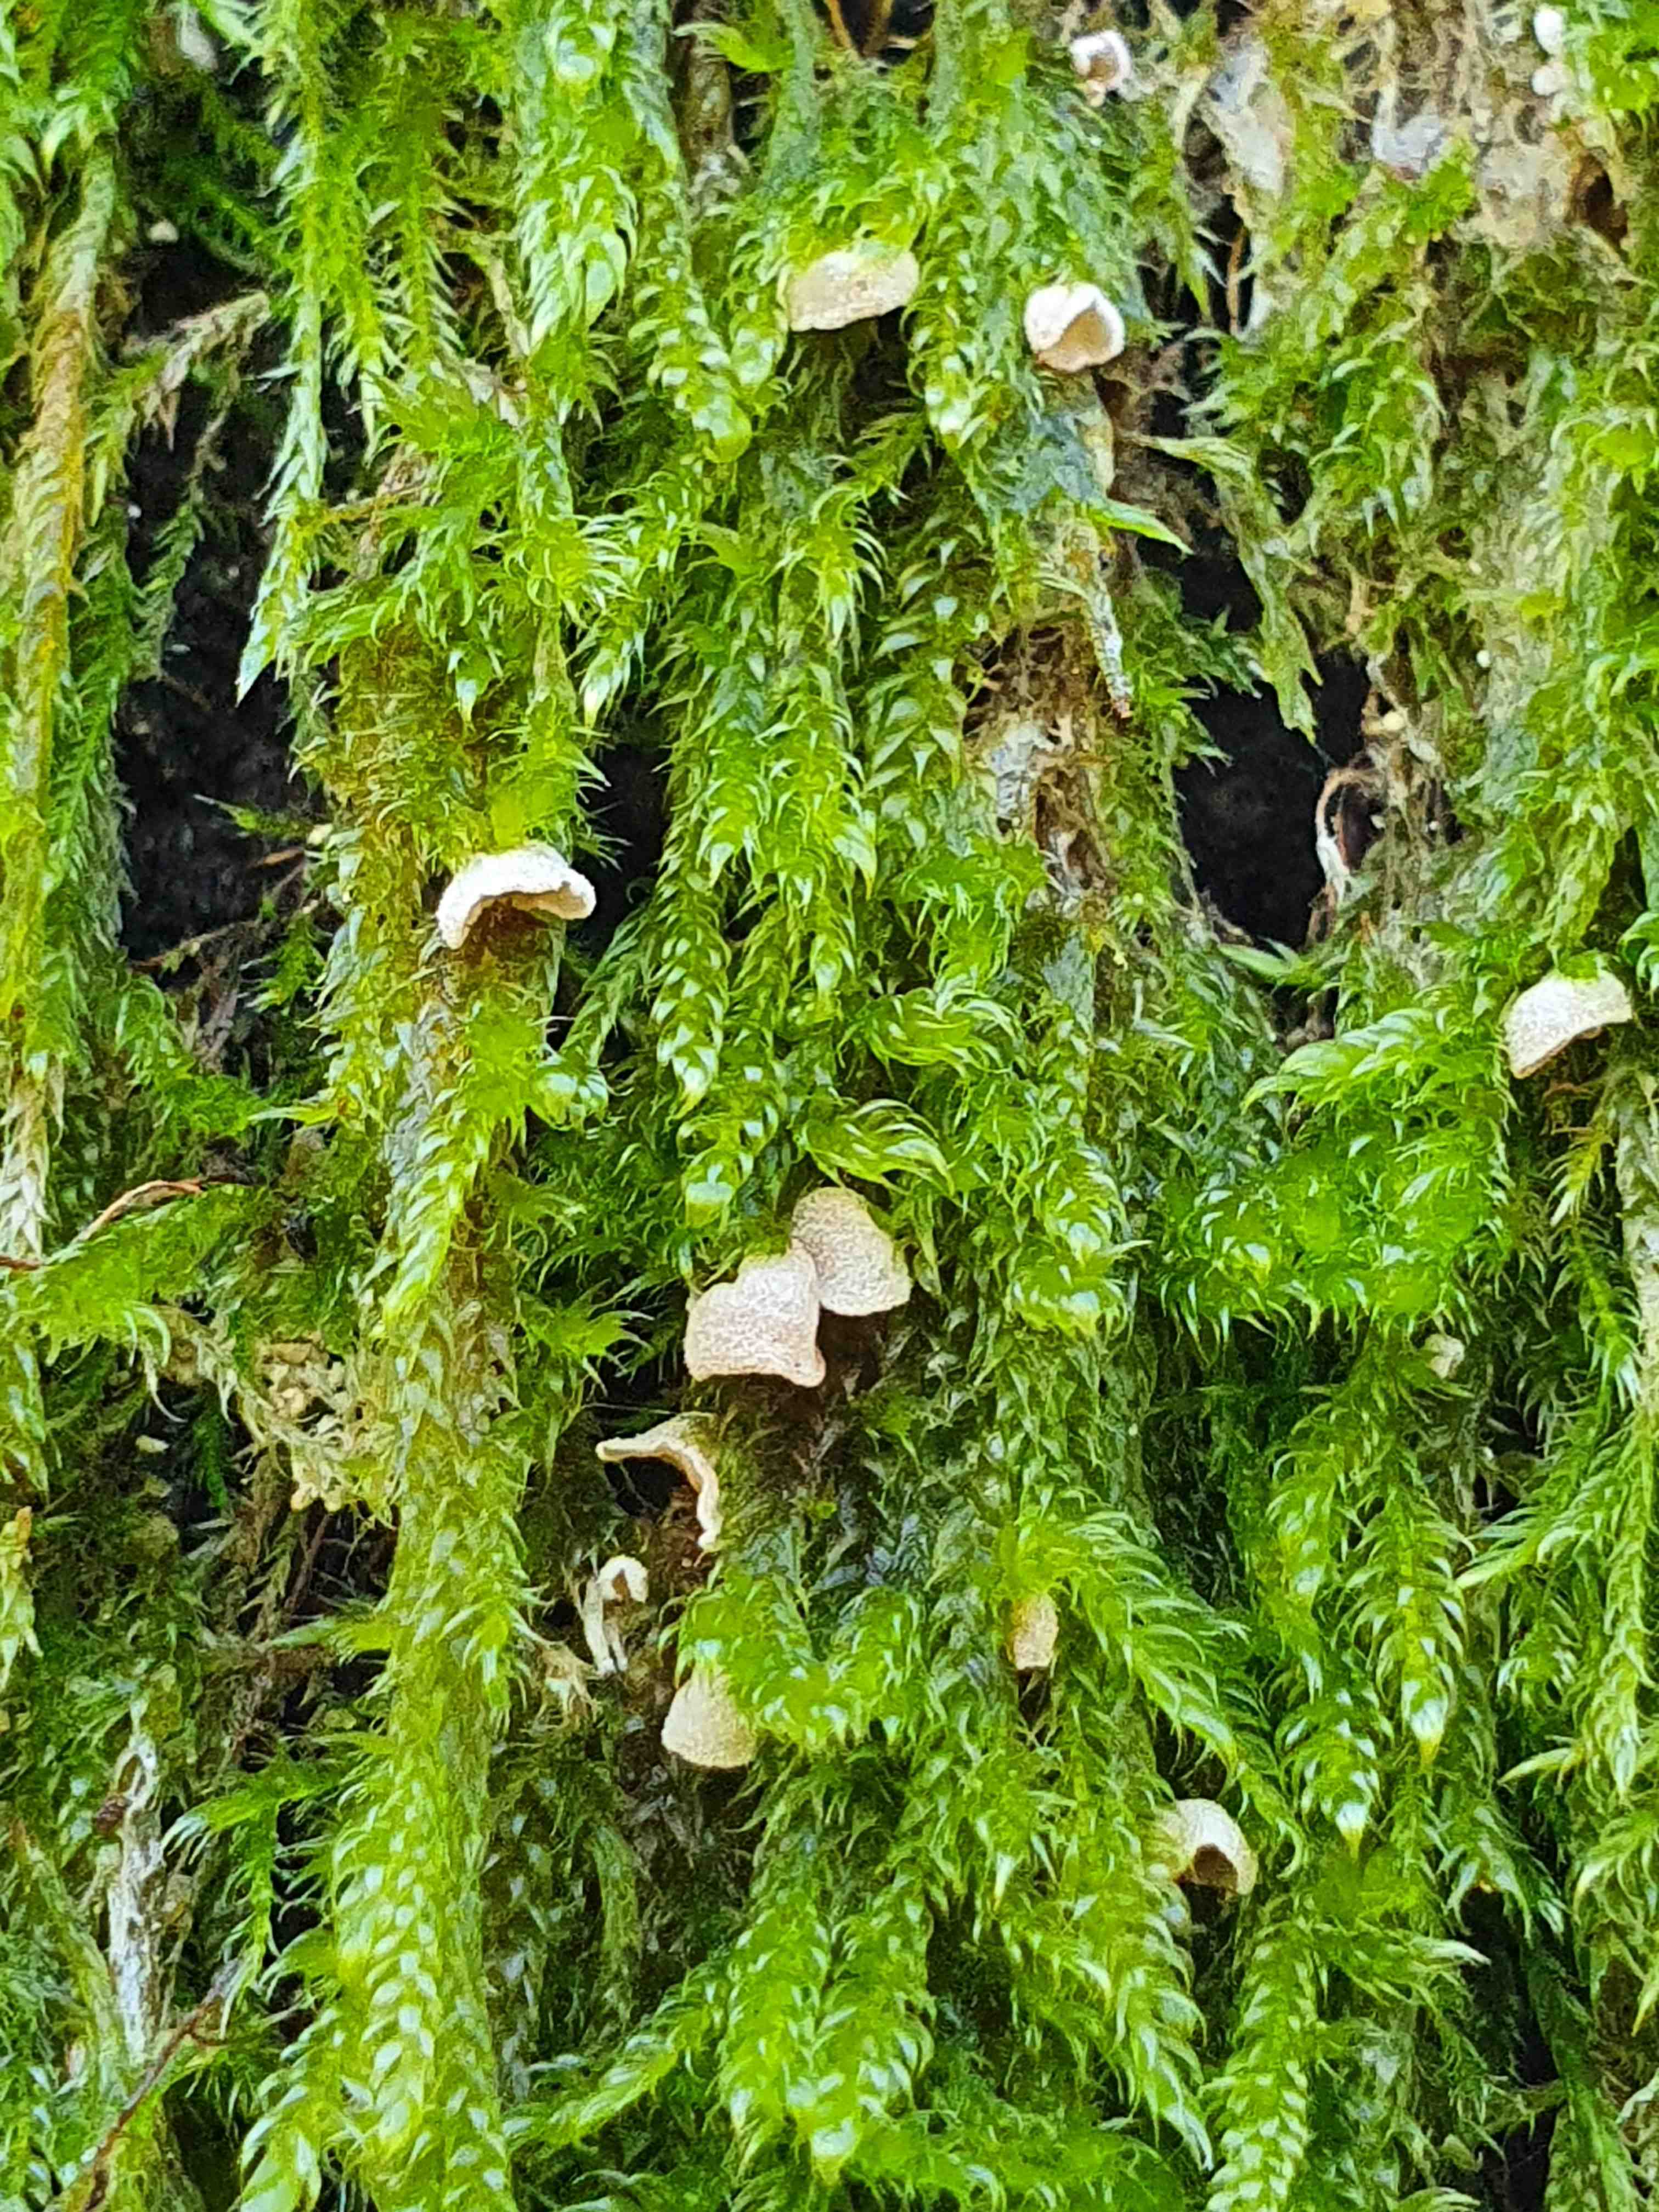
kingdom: Fungi
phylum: Basidiomycota
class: Agaricomycetes
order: Agaricales
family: Chromocyphellaceae
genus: Chromocyphella
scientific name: Chromocyphella muscicola
